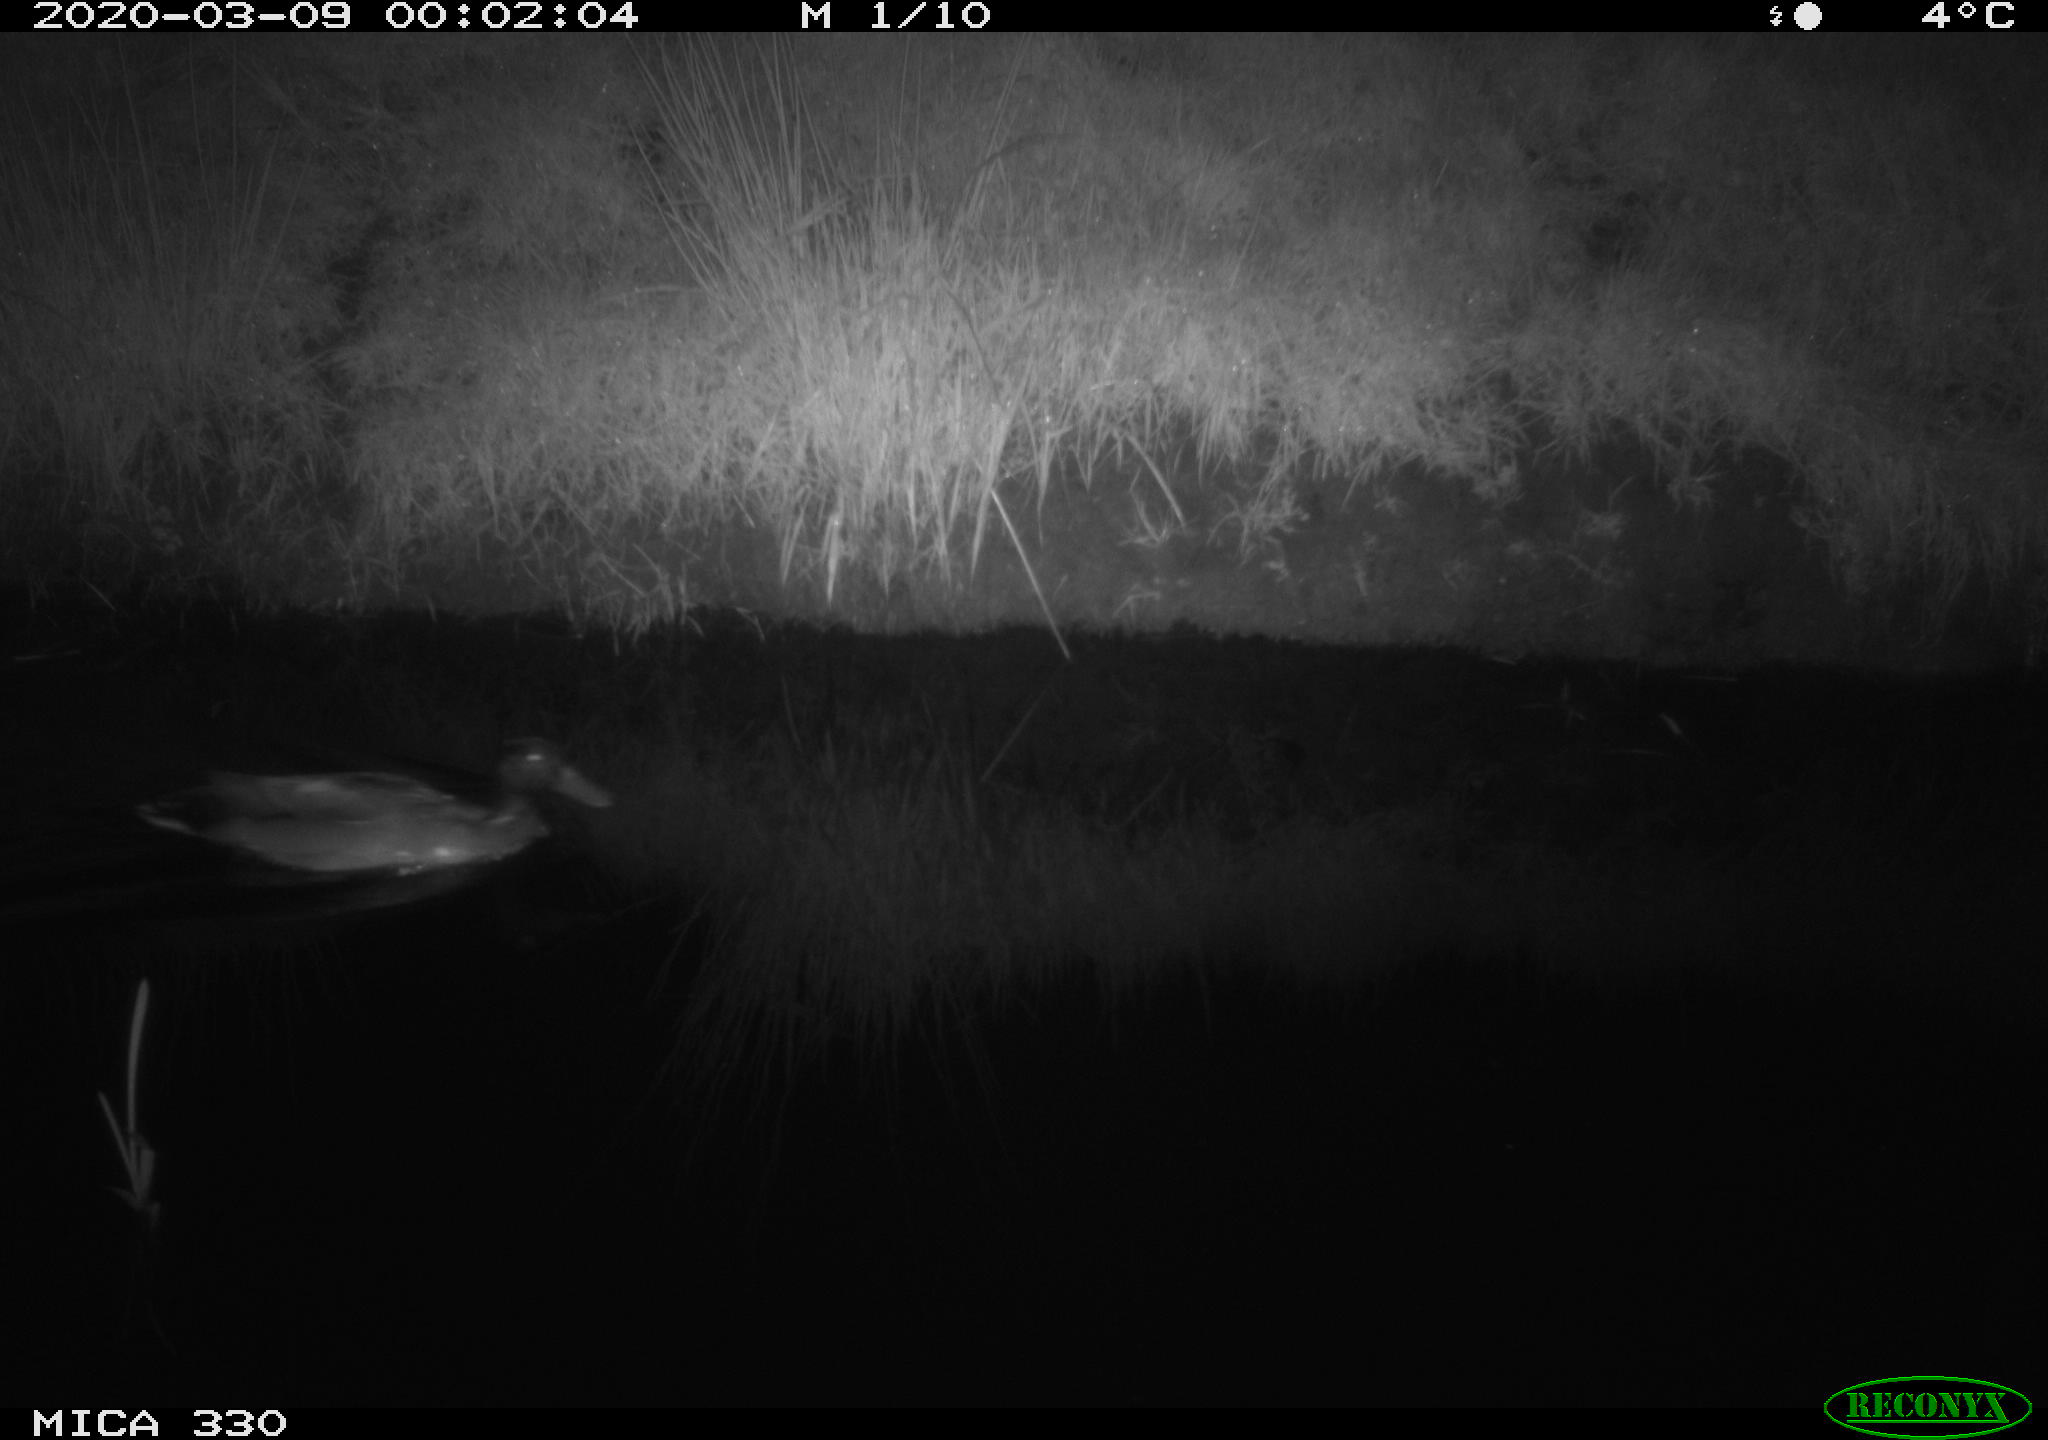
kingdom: Animalia
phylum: Chordata
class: Aves
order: Anseriformes
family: Anatidae
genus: Anas
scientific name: Anas platyrhynchos
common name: Mallard
